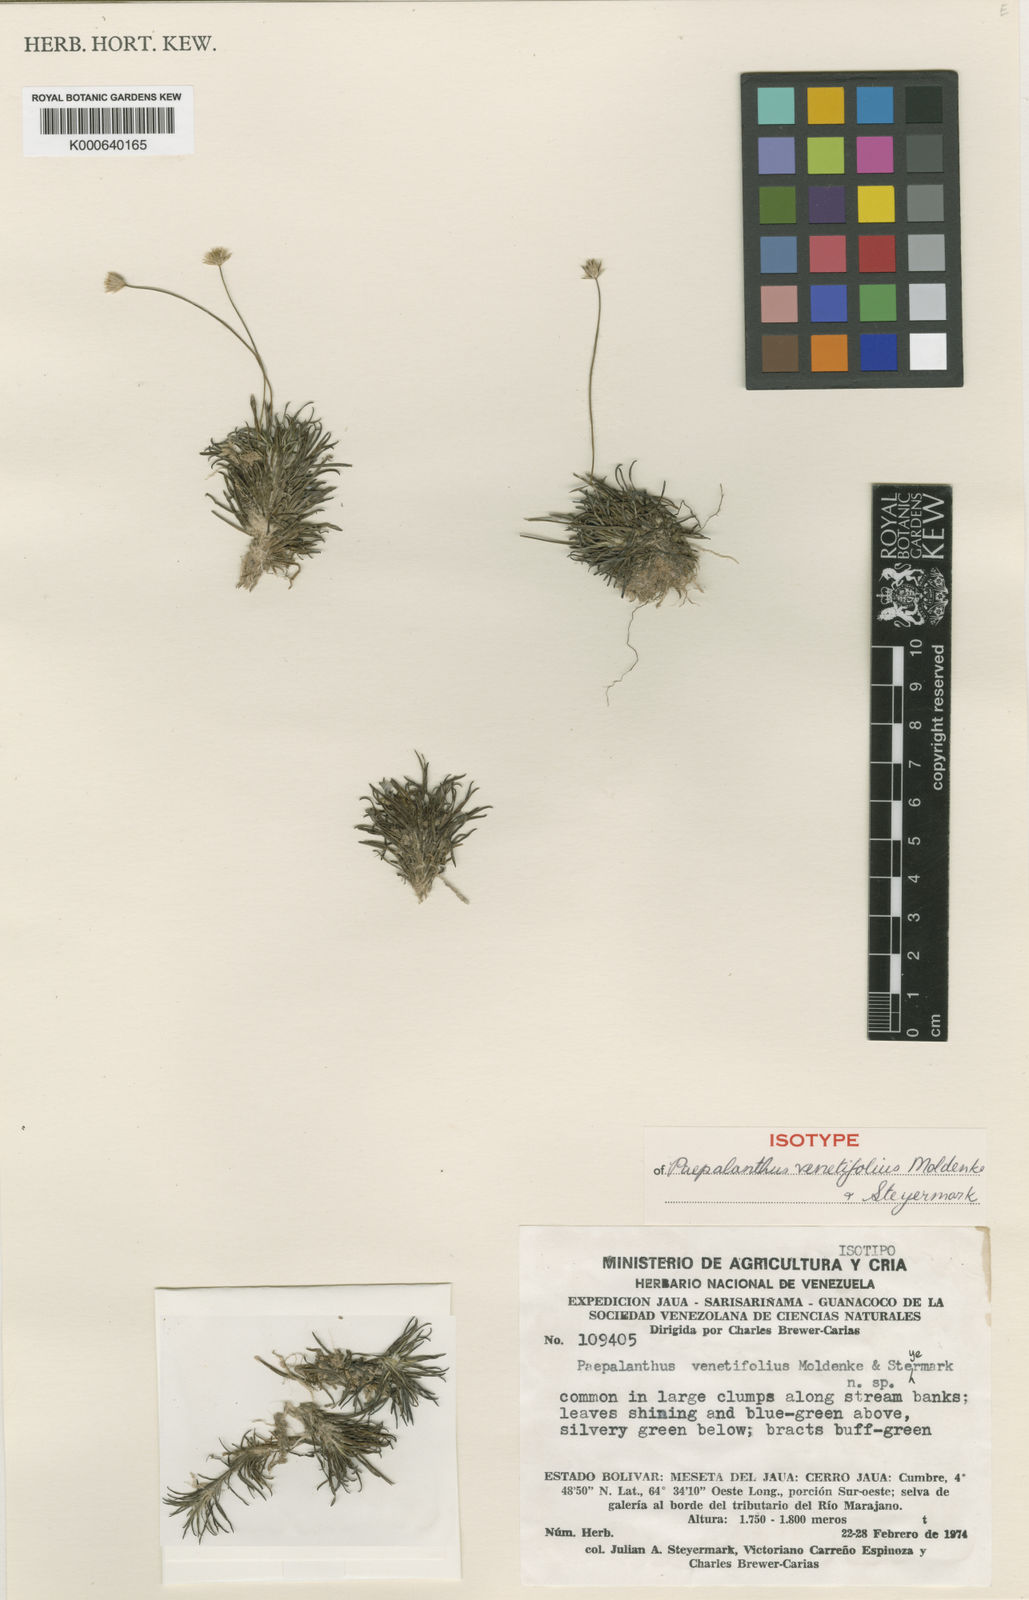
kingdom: Plantae
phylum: Tracheophyta
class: Liliopsida
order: Poales
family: Eriocaulaceae
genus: Syngonanthus
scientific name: Syngonanthus pakaraimensis
